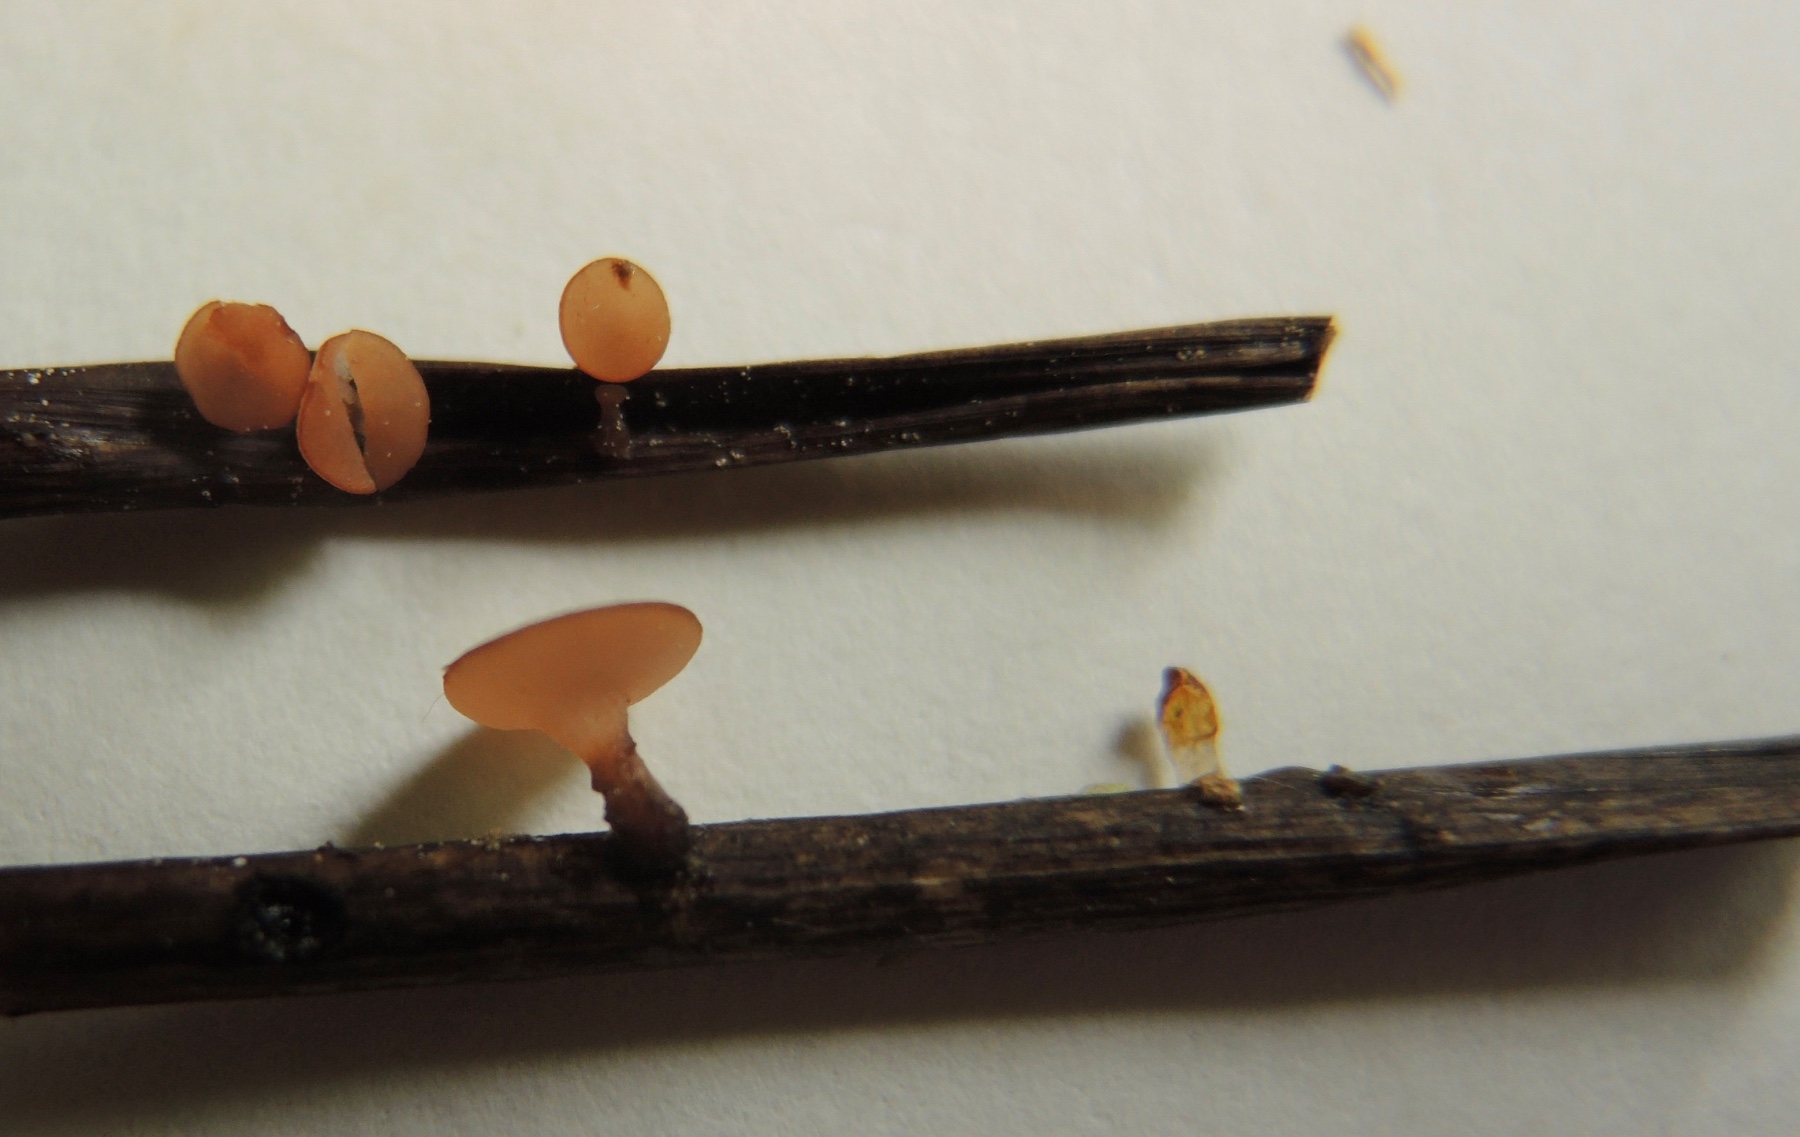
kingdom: Fungi
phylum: Ascomycota
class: Leotiomycetes
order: Helotiales
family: Rutstroemiaceae
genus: Rutstroemia
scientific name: Rutstroemia
